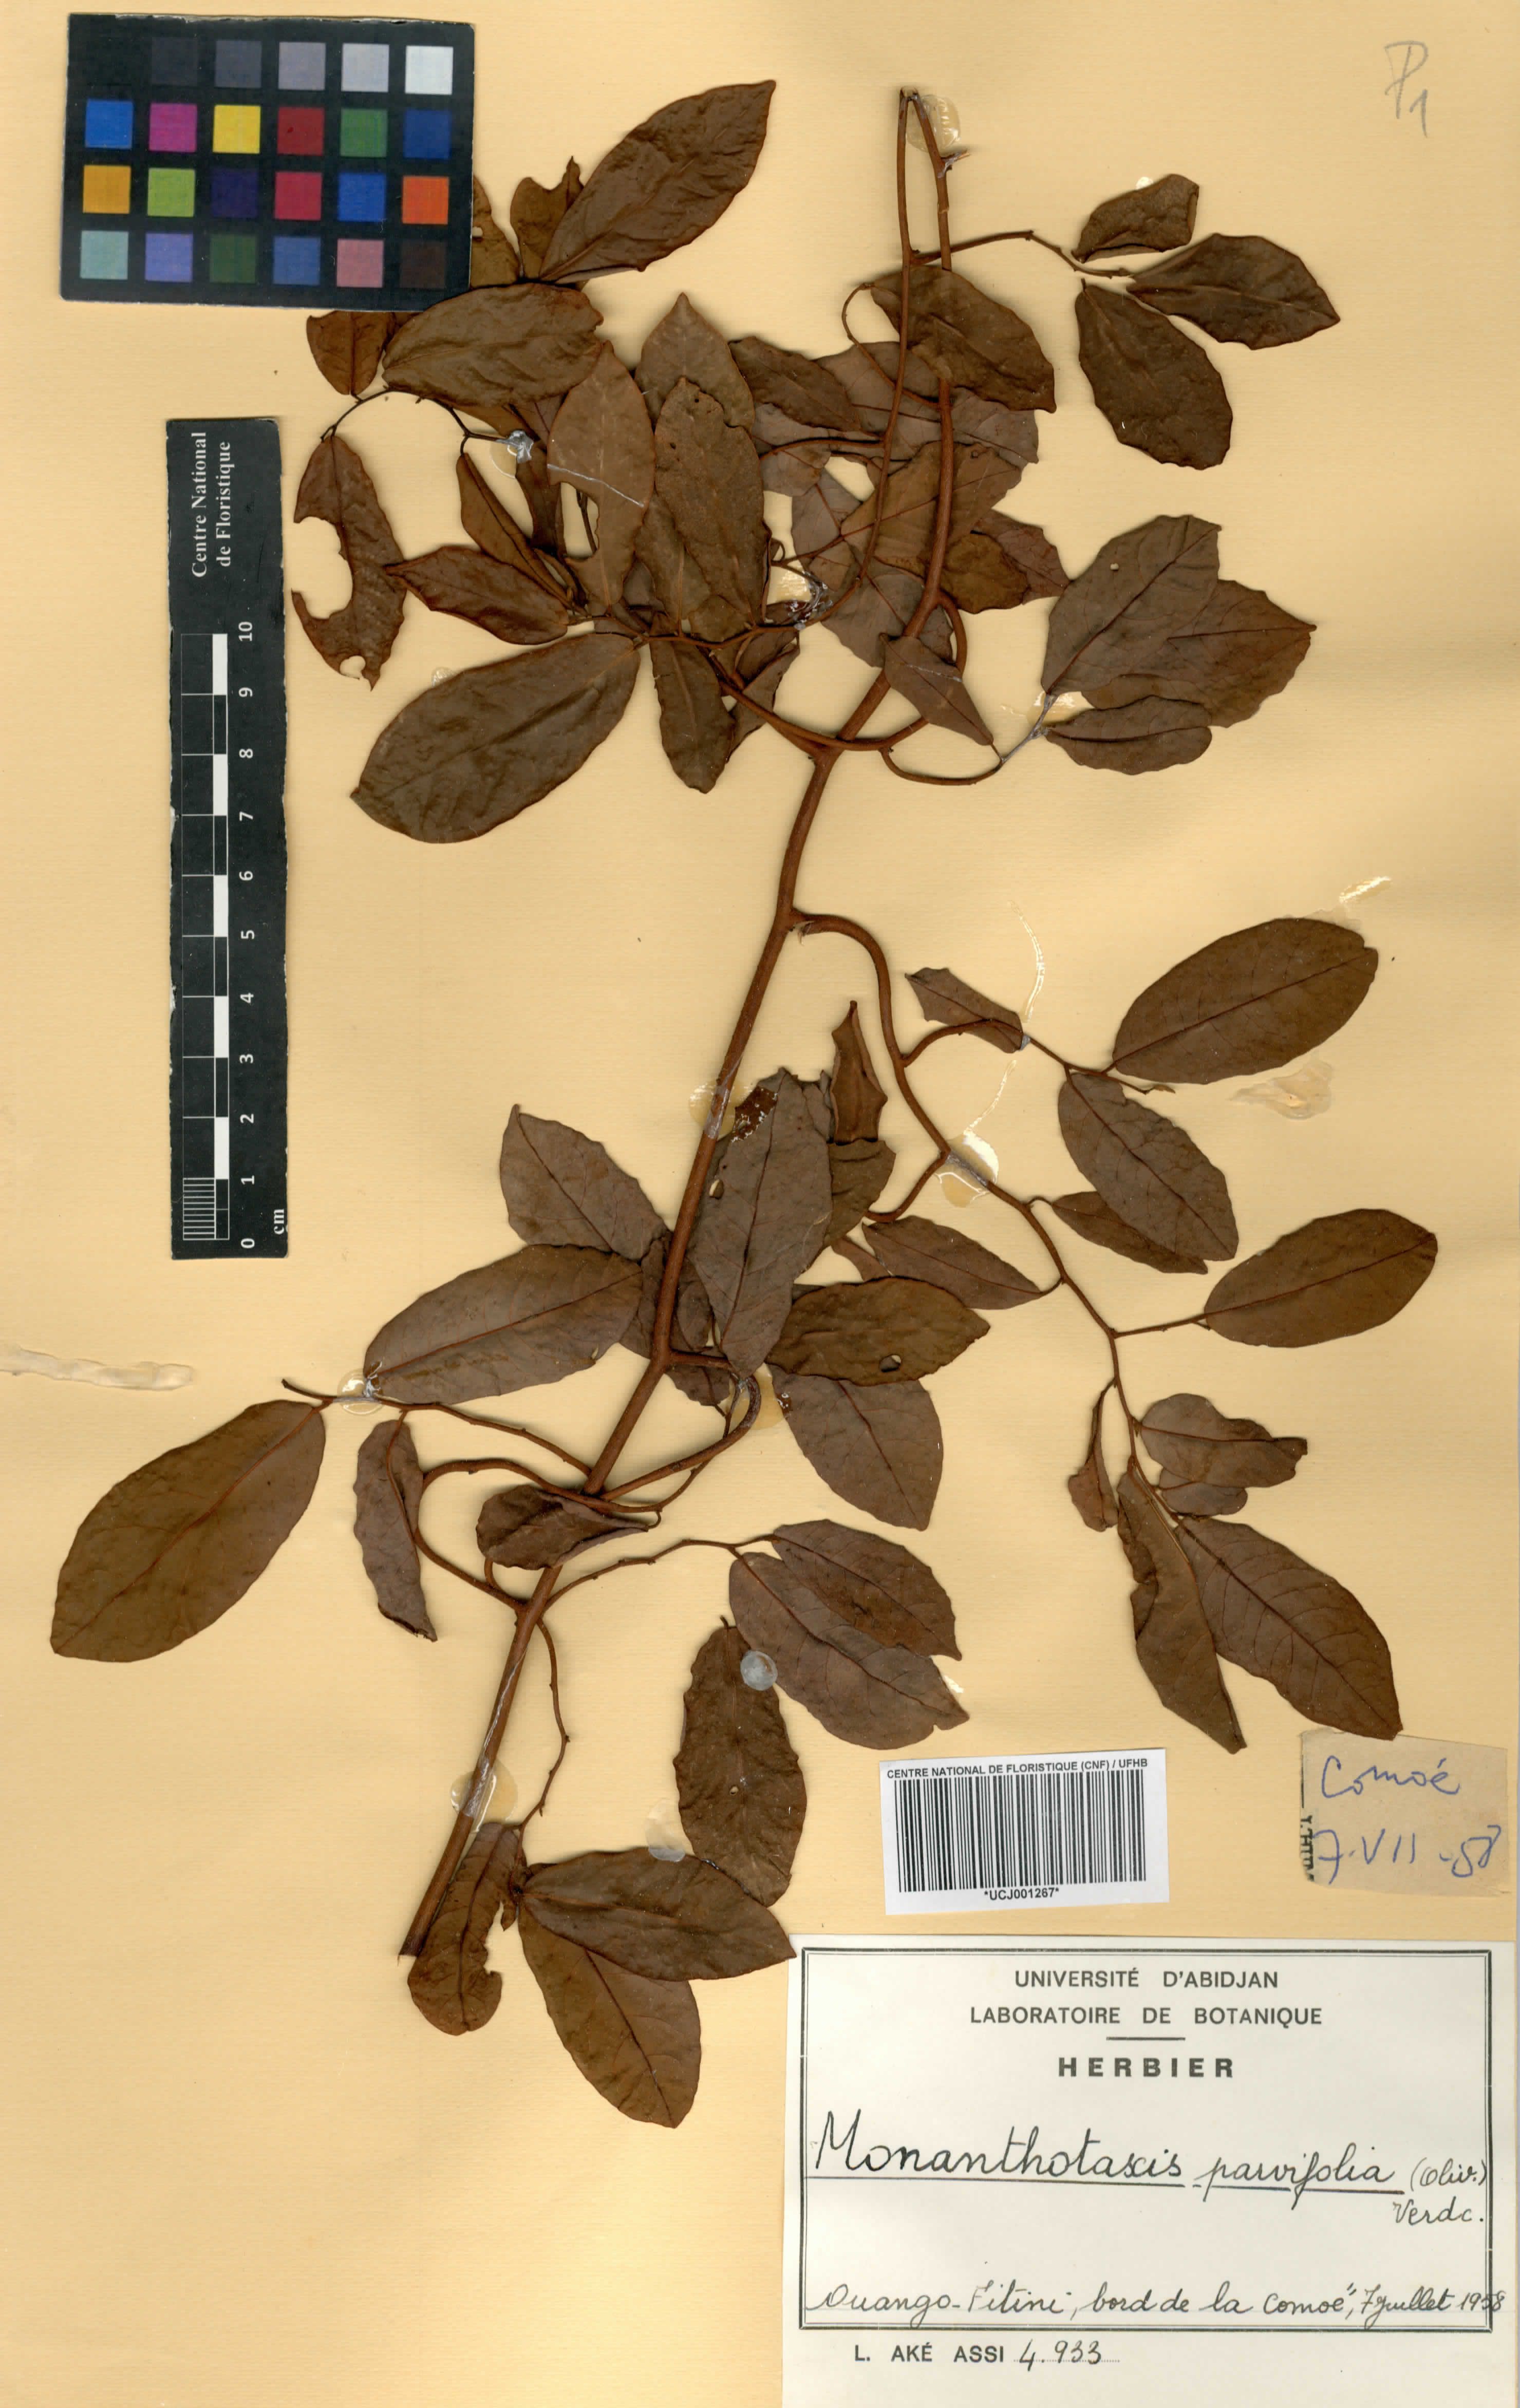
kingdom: Plantae
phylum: Tracheophyta
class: Magnoliopsida
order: Magnoliales
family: Annonaceae
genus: Monanthotaxis
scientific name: Monanthotaxis parvifolia
